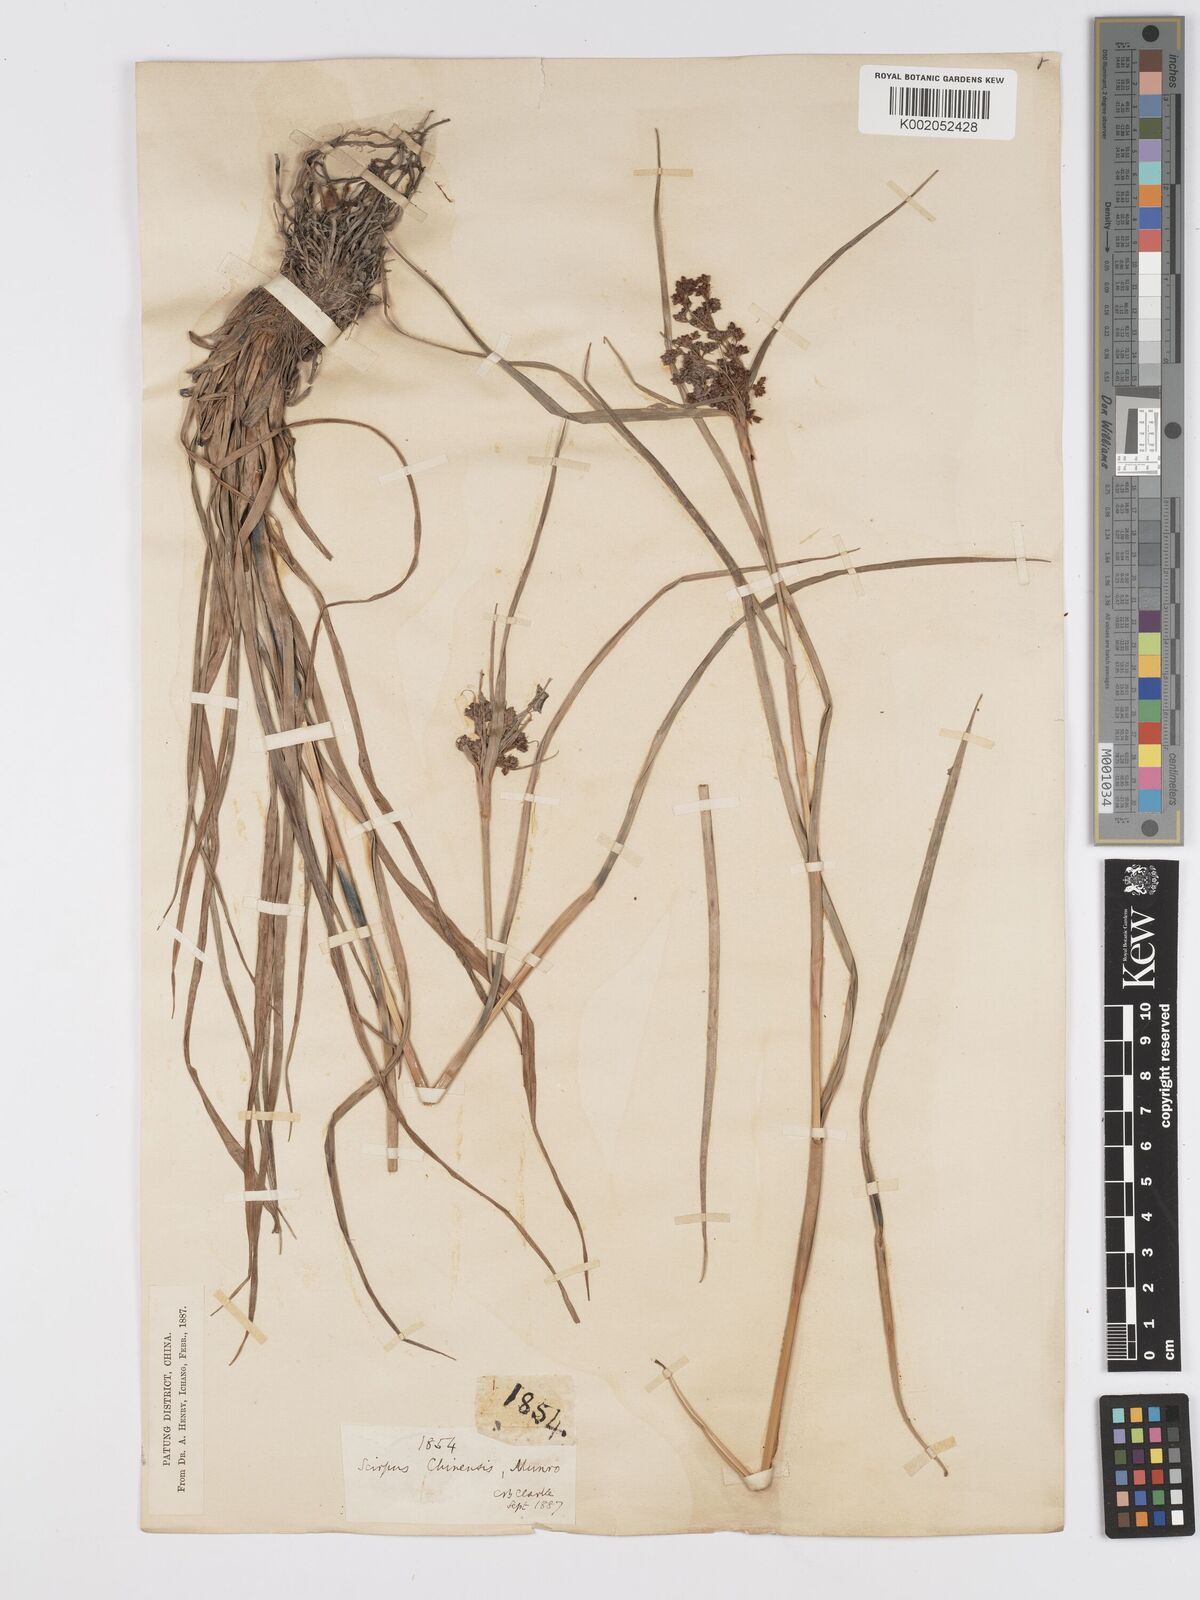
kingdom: Plantae
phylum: Tracheophyta
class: Liliopsida
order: Poales
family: Cyperaceae
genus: Scirpus
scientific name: Scirpus ternatanus
